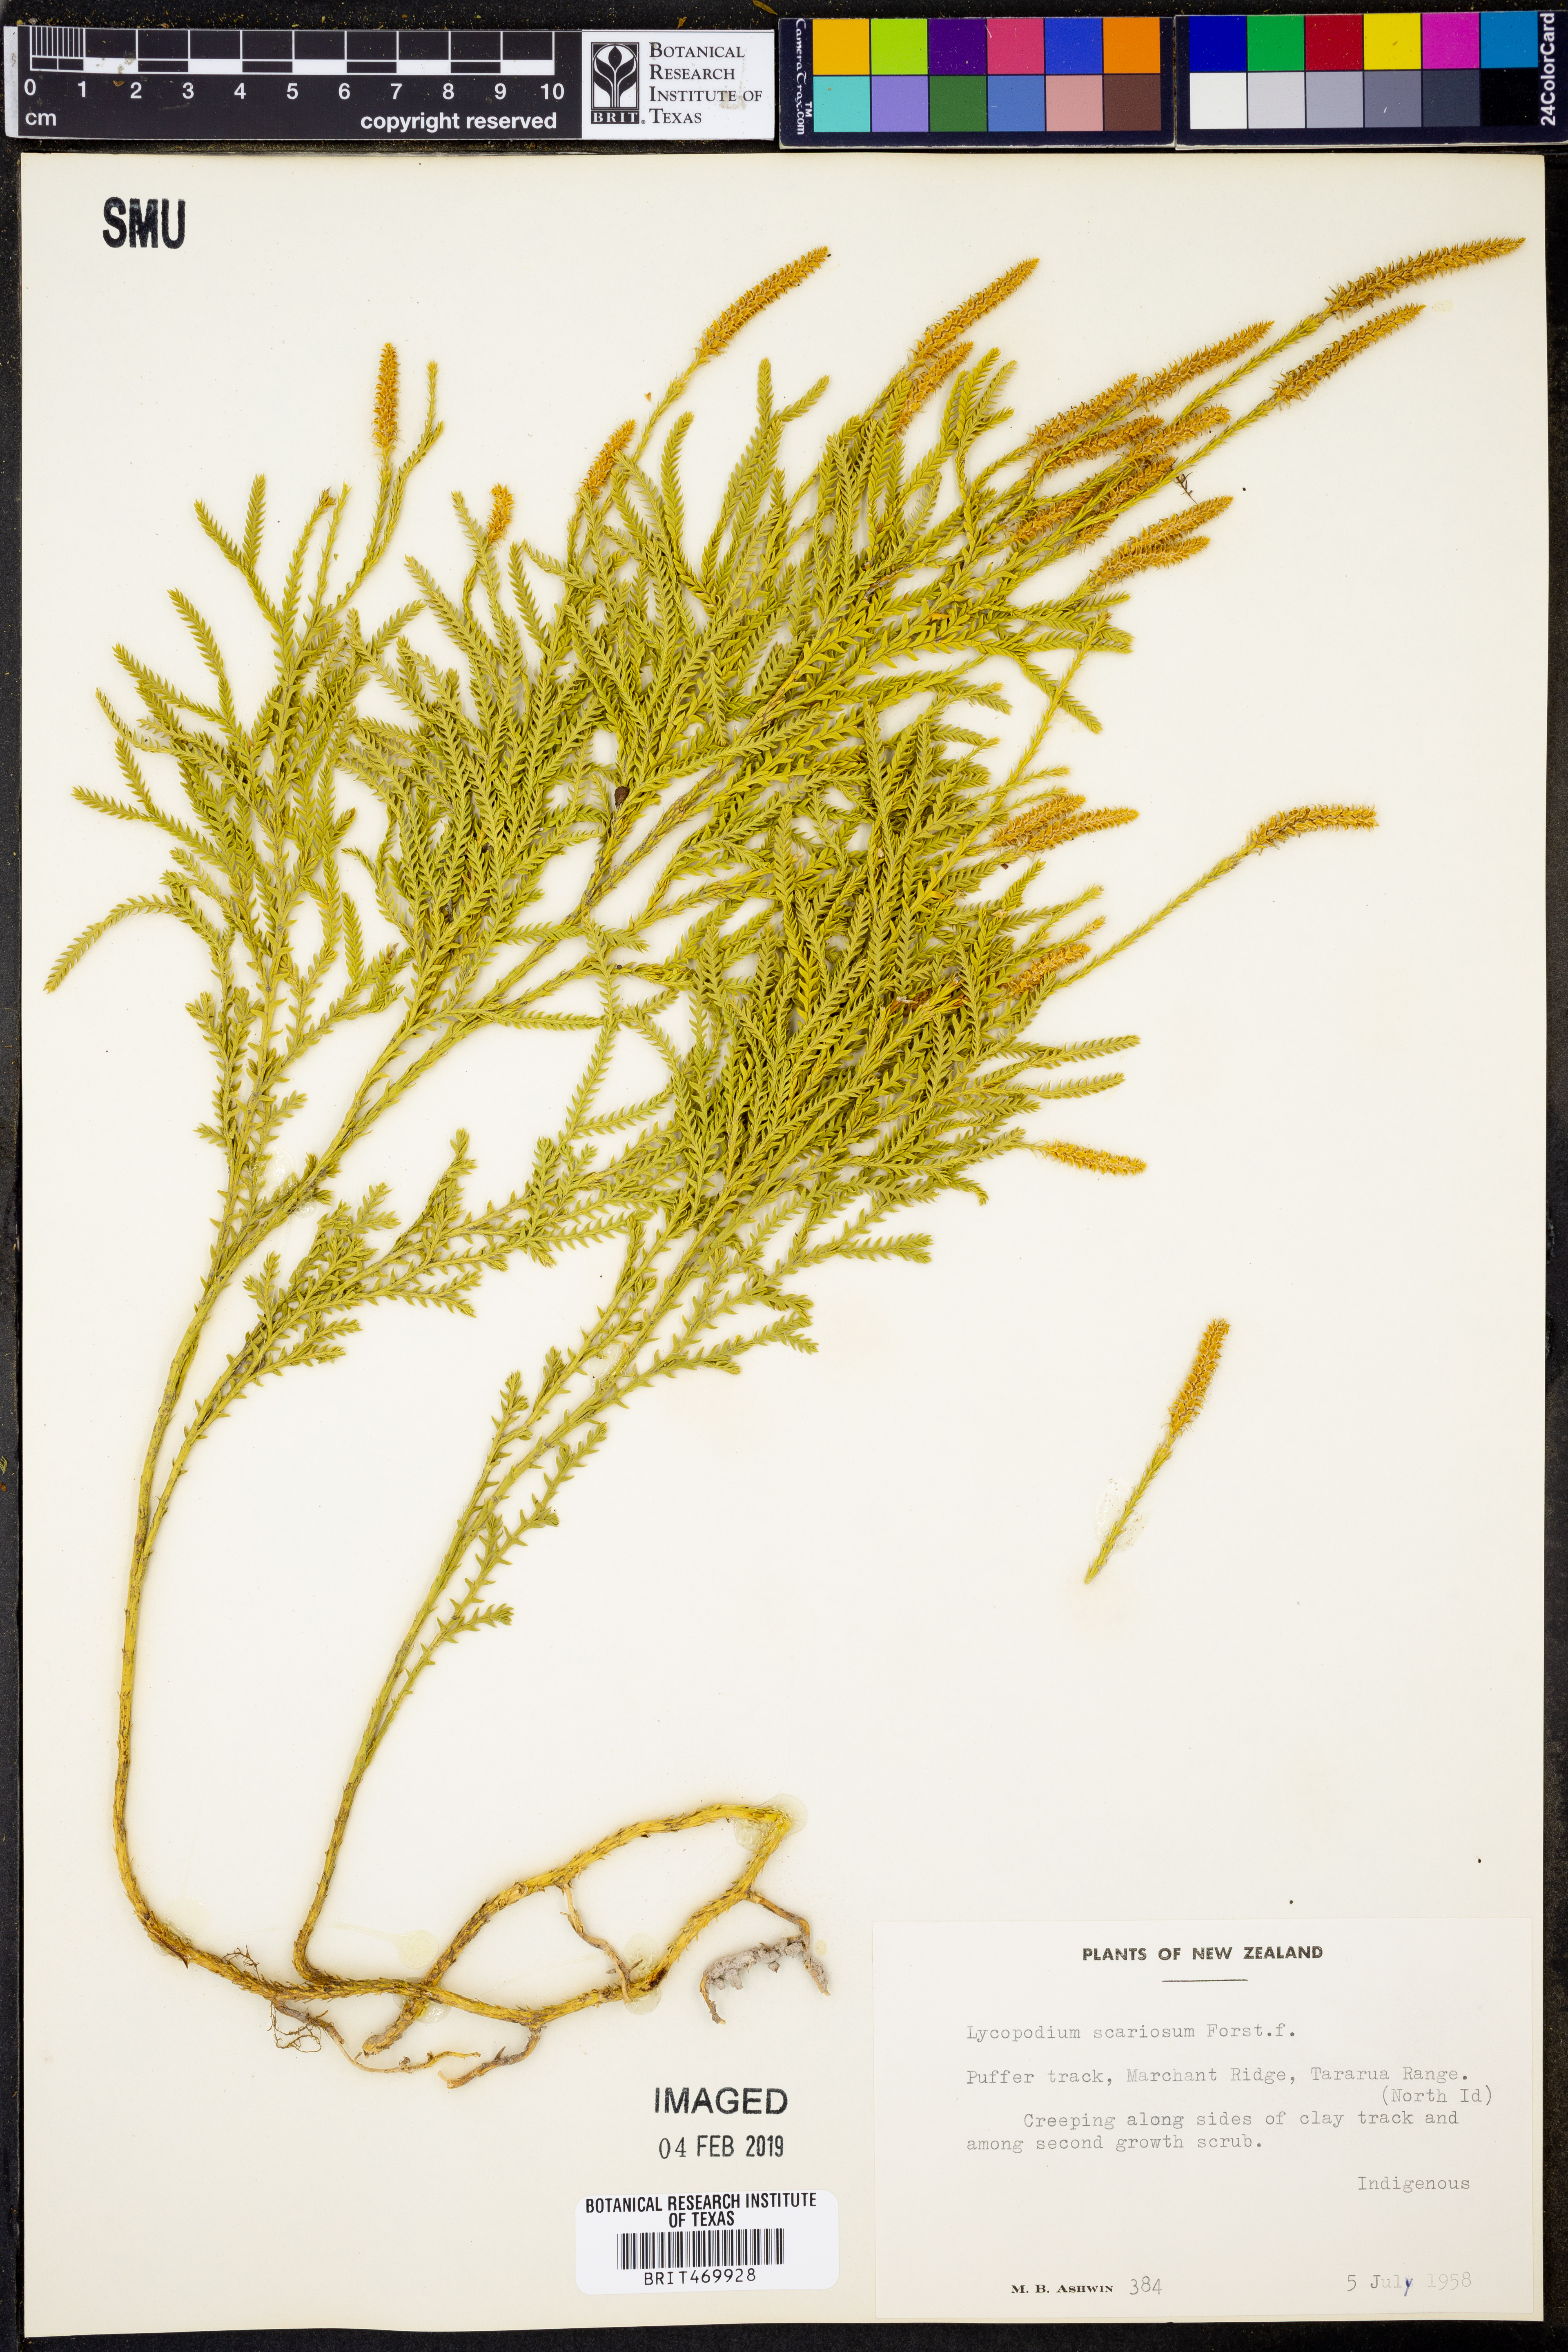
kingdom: Plantae
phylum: Tracheophyta
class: Lycopodiopsida
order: Lycopodiales
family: Lycopodiaceae
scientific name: Lycopodiaceae
